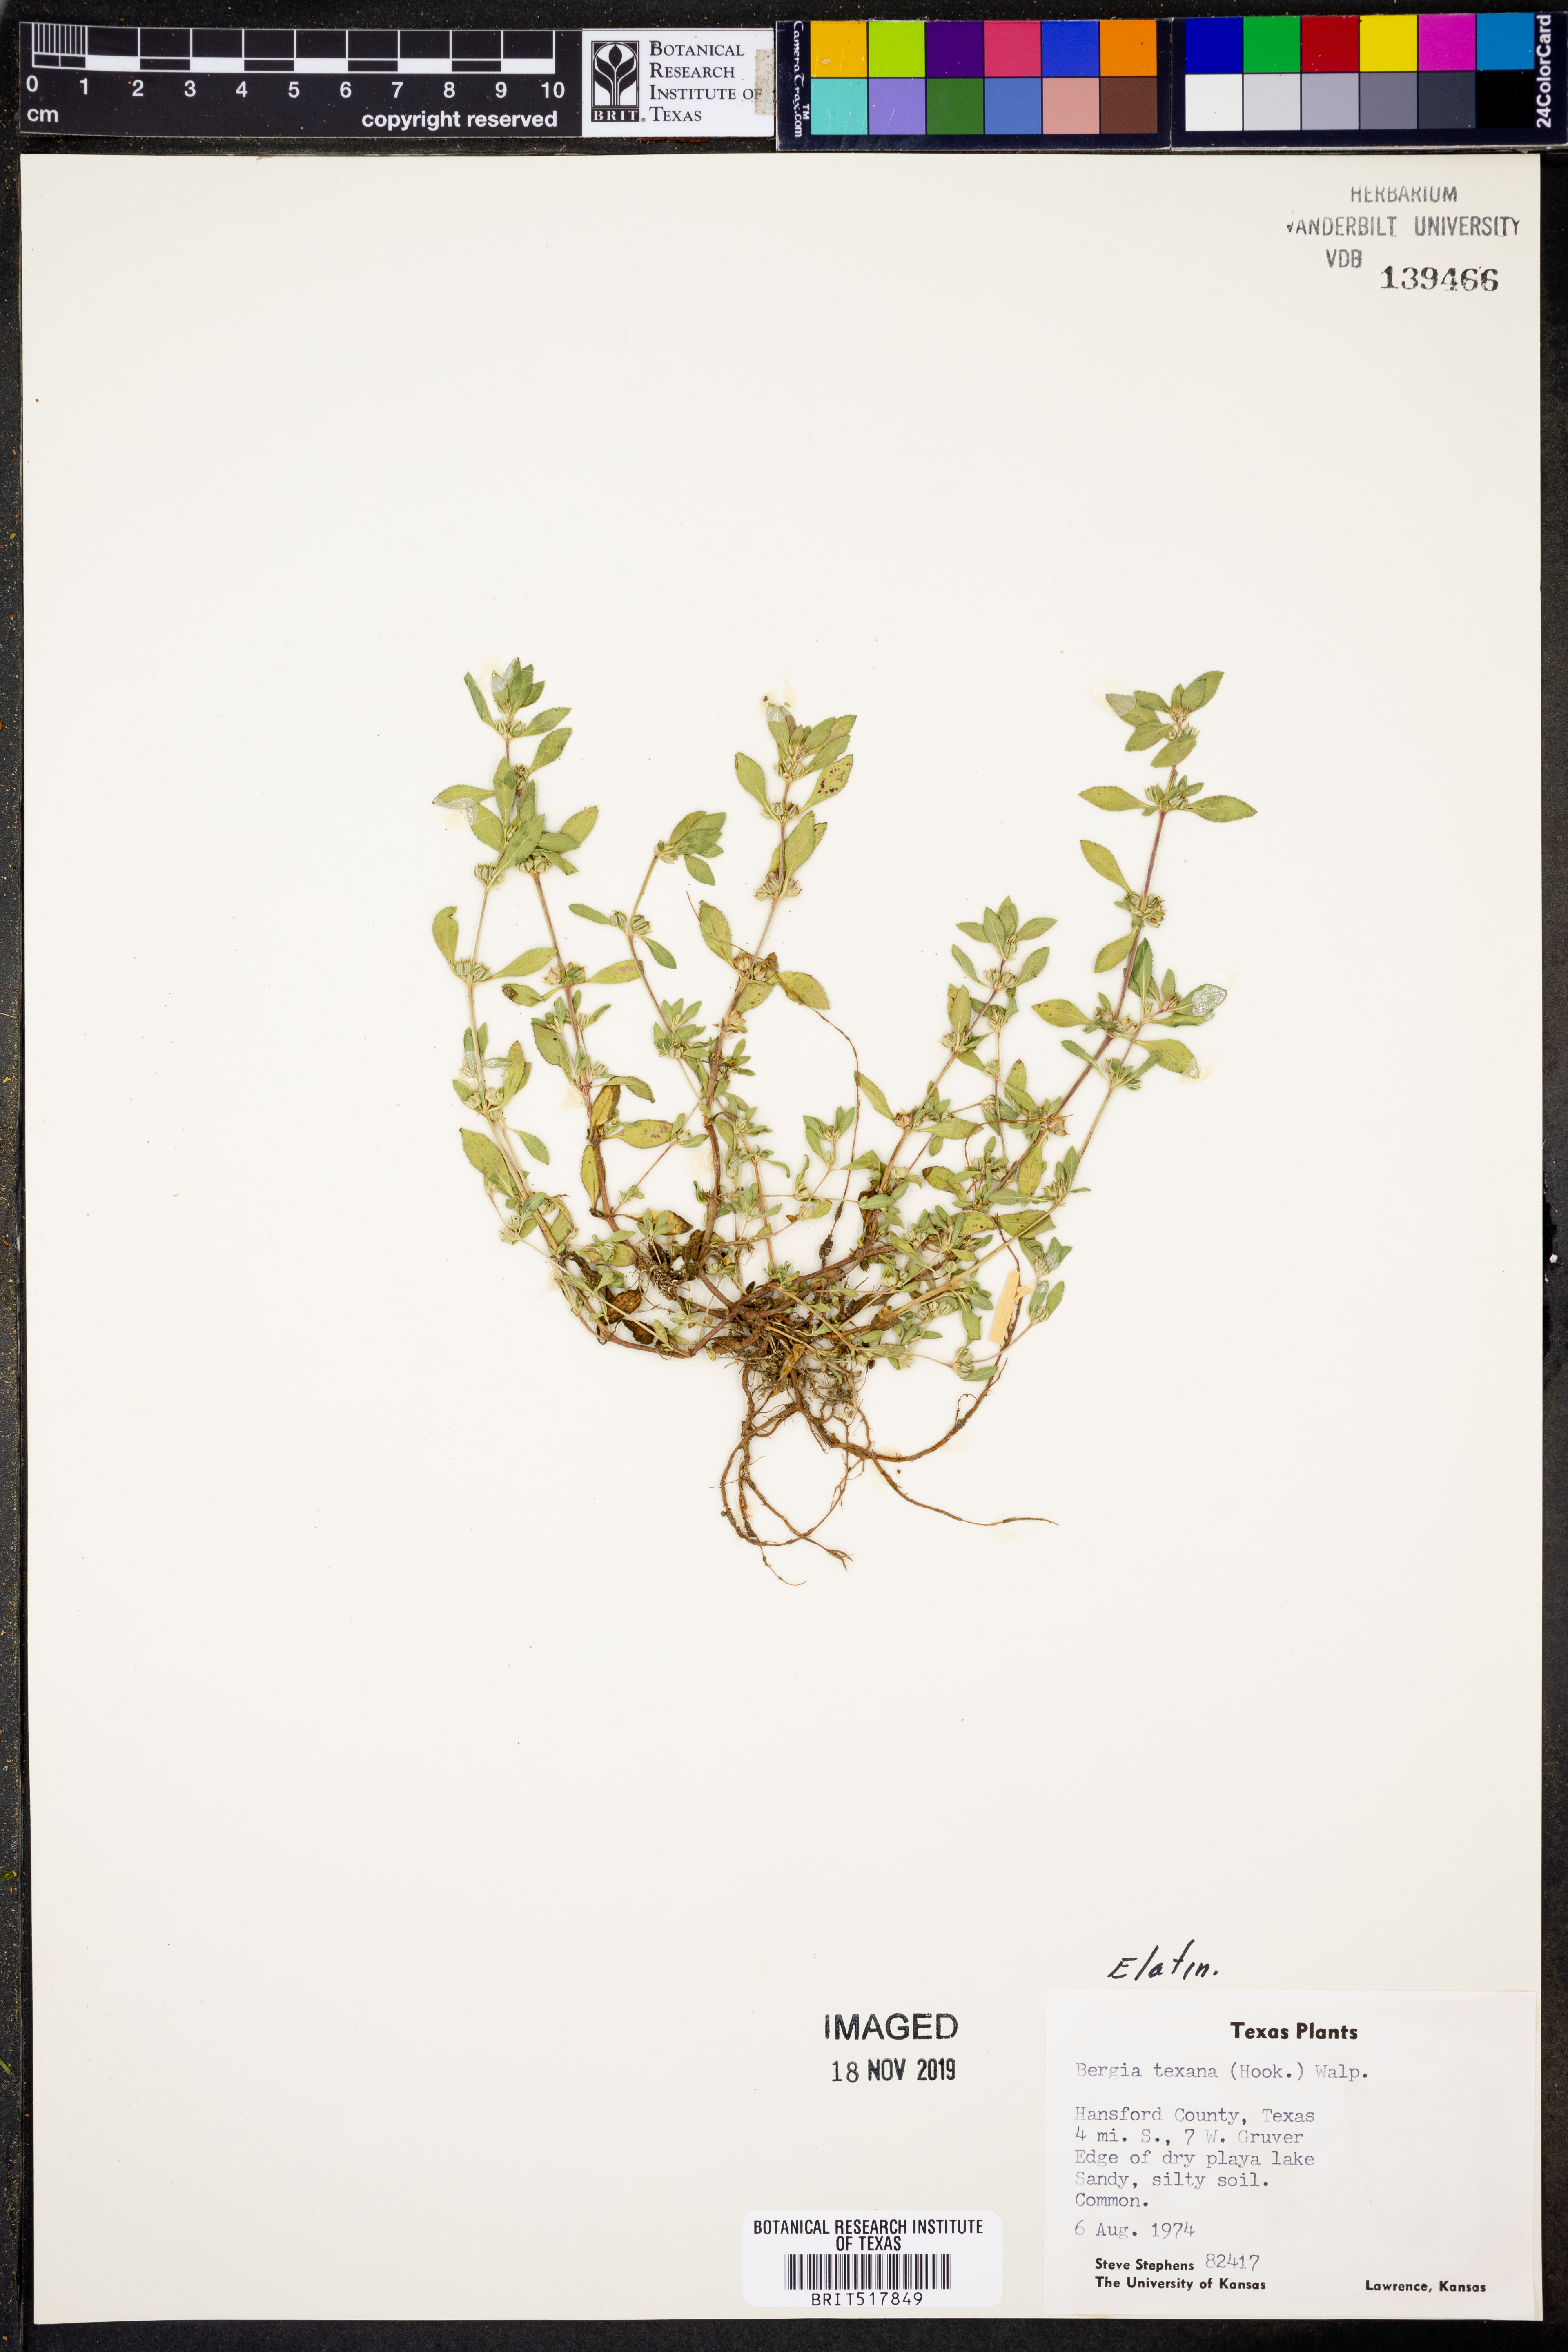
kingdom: Plantae
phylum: Tracheophyta
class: Magnoliopsida
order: Malpighiales
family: Elatinaceae
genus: Bergia
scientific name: Bergia texana
